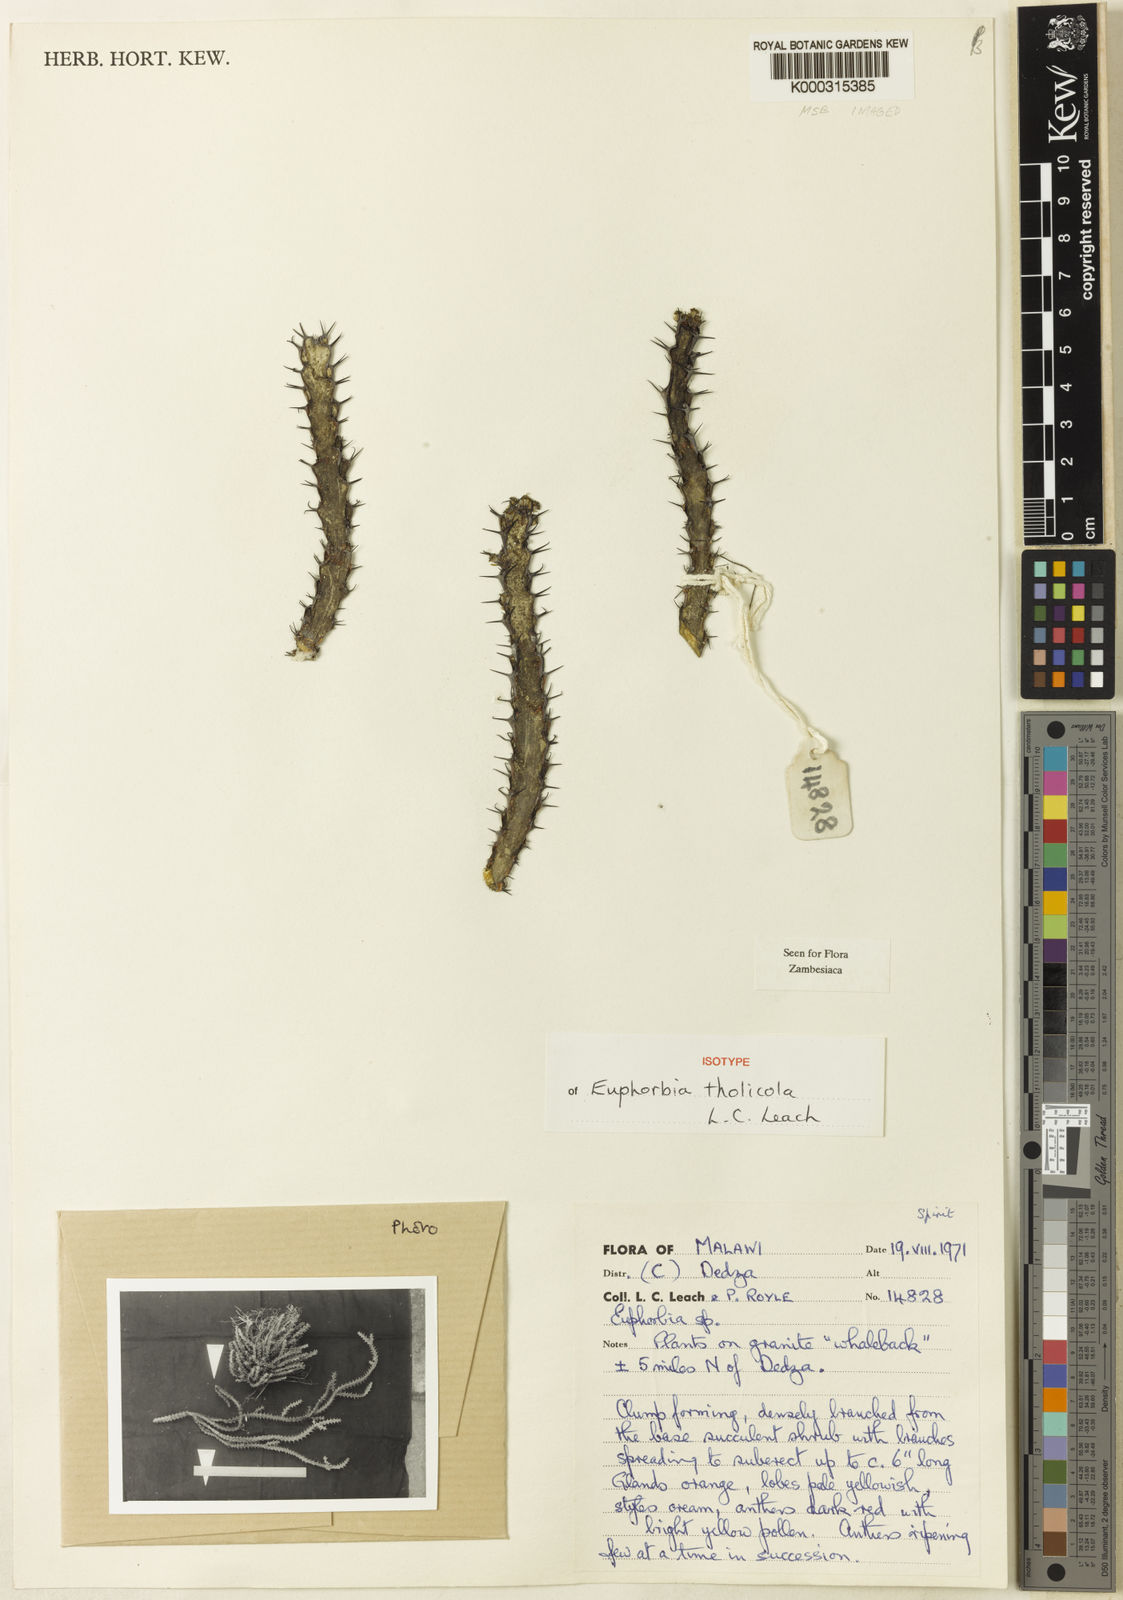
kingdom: Plantae
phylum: Tracheophyta
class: Magnoliopsida
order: Malpighiales
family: Euphorbiaceae
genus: Euphorbia
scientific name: Euphorbia tholicola
